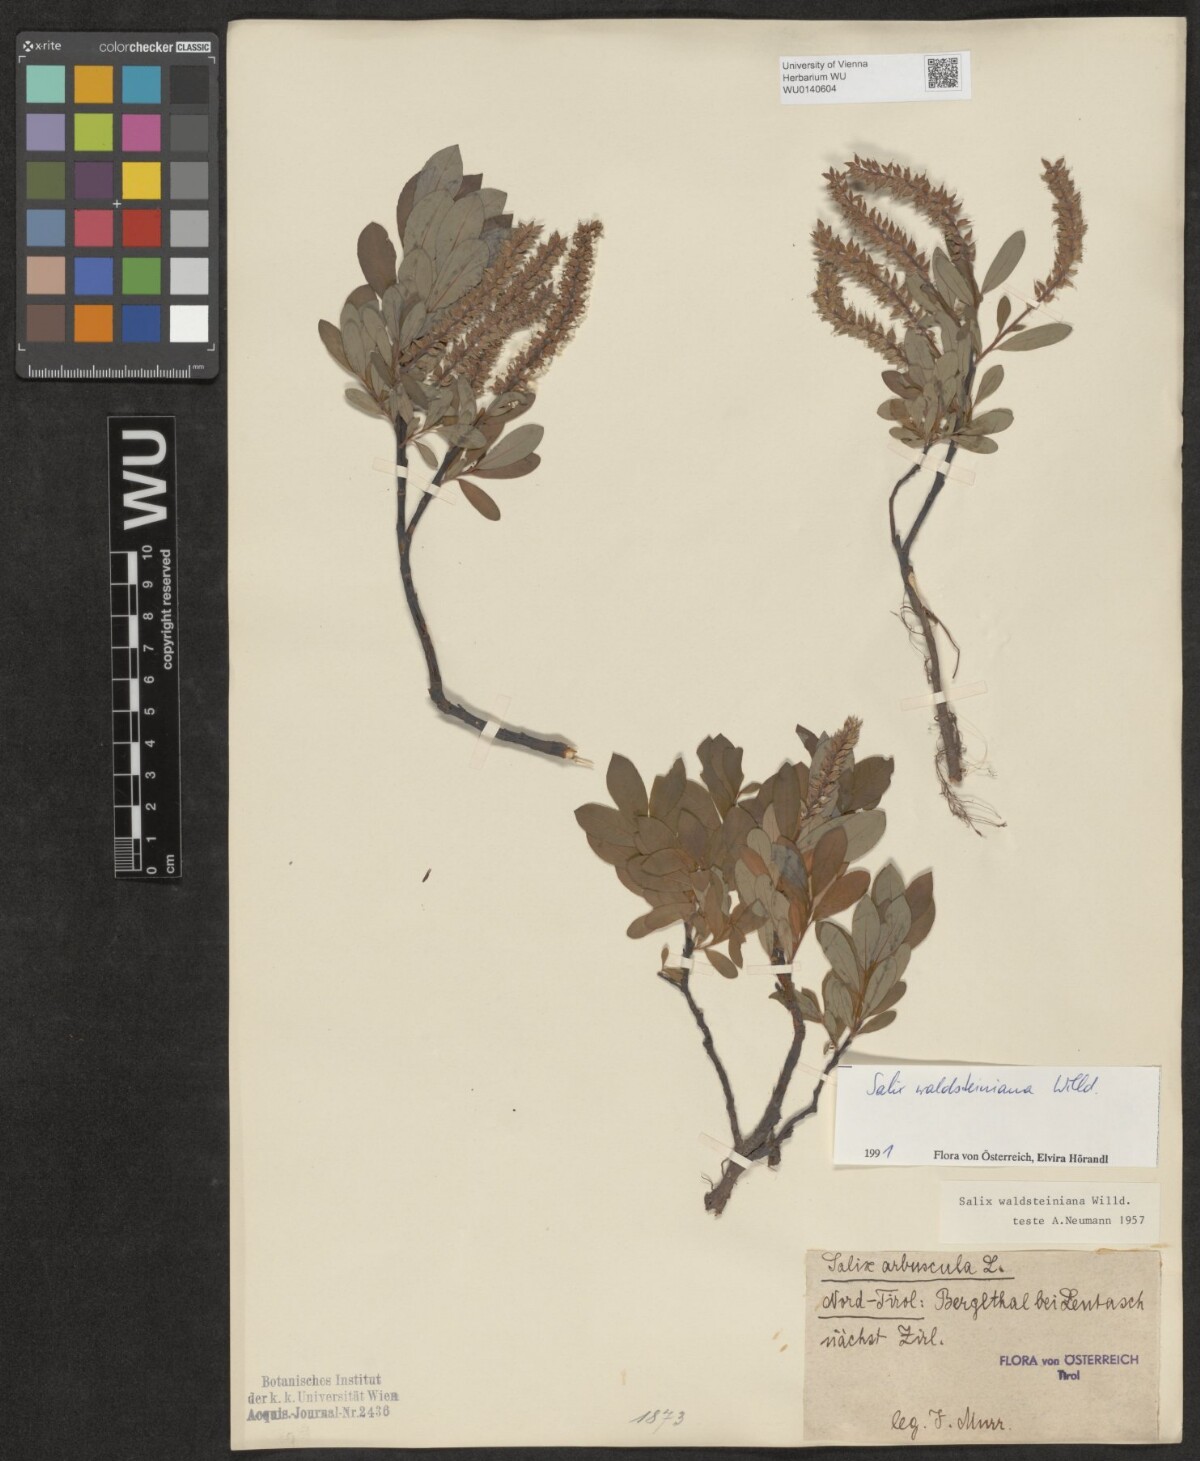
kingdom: Plantae
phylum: Tracheophyta
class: Magnoliopsida
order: Malpighiales
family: Salicaceae
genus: Salix
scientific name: Salix waldsteiniana
